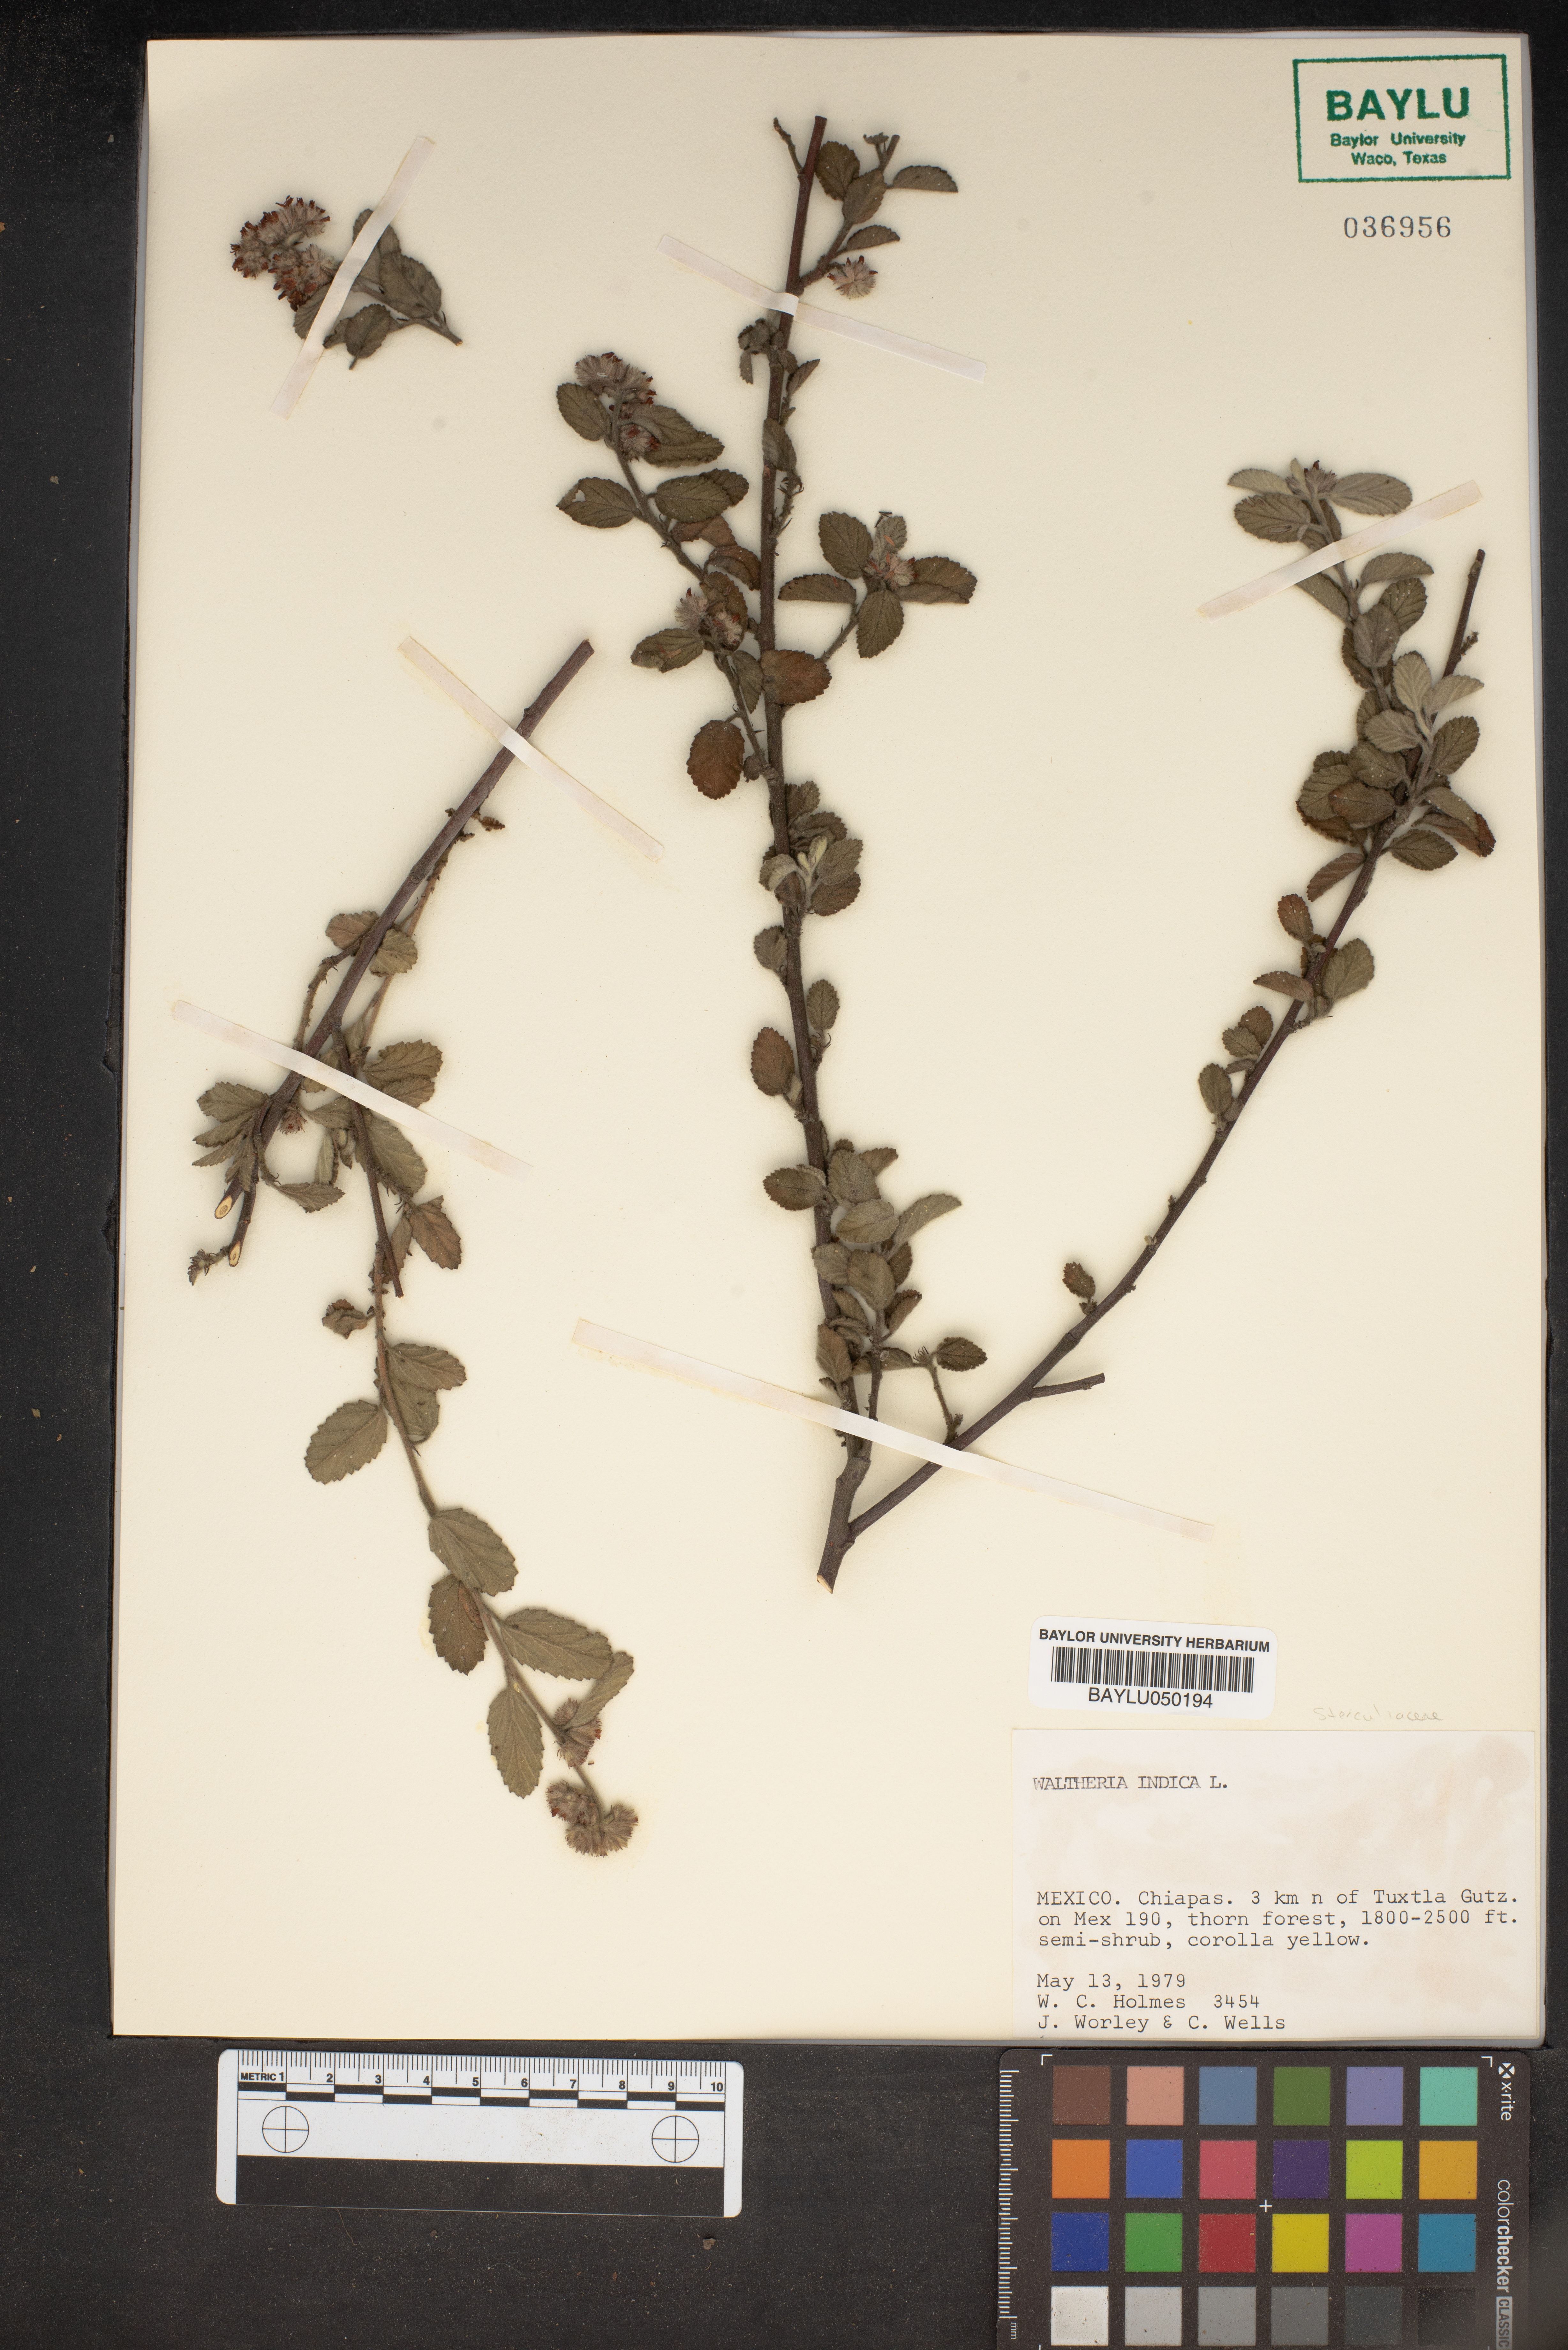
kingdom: Plantae
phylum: Tracheophyta
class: Magnoliopsida
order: Malvales
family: Malvaceae
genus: Waltheria
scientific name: Waltheria indica
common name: Leather-coat
